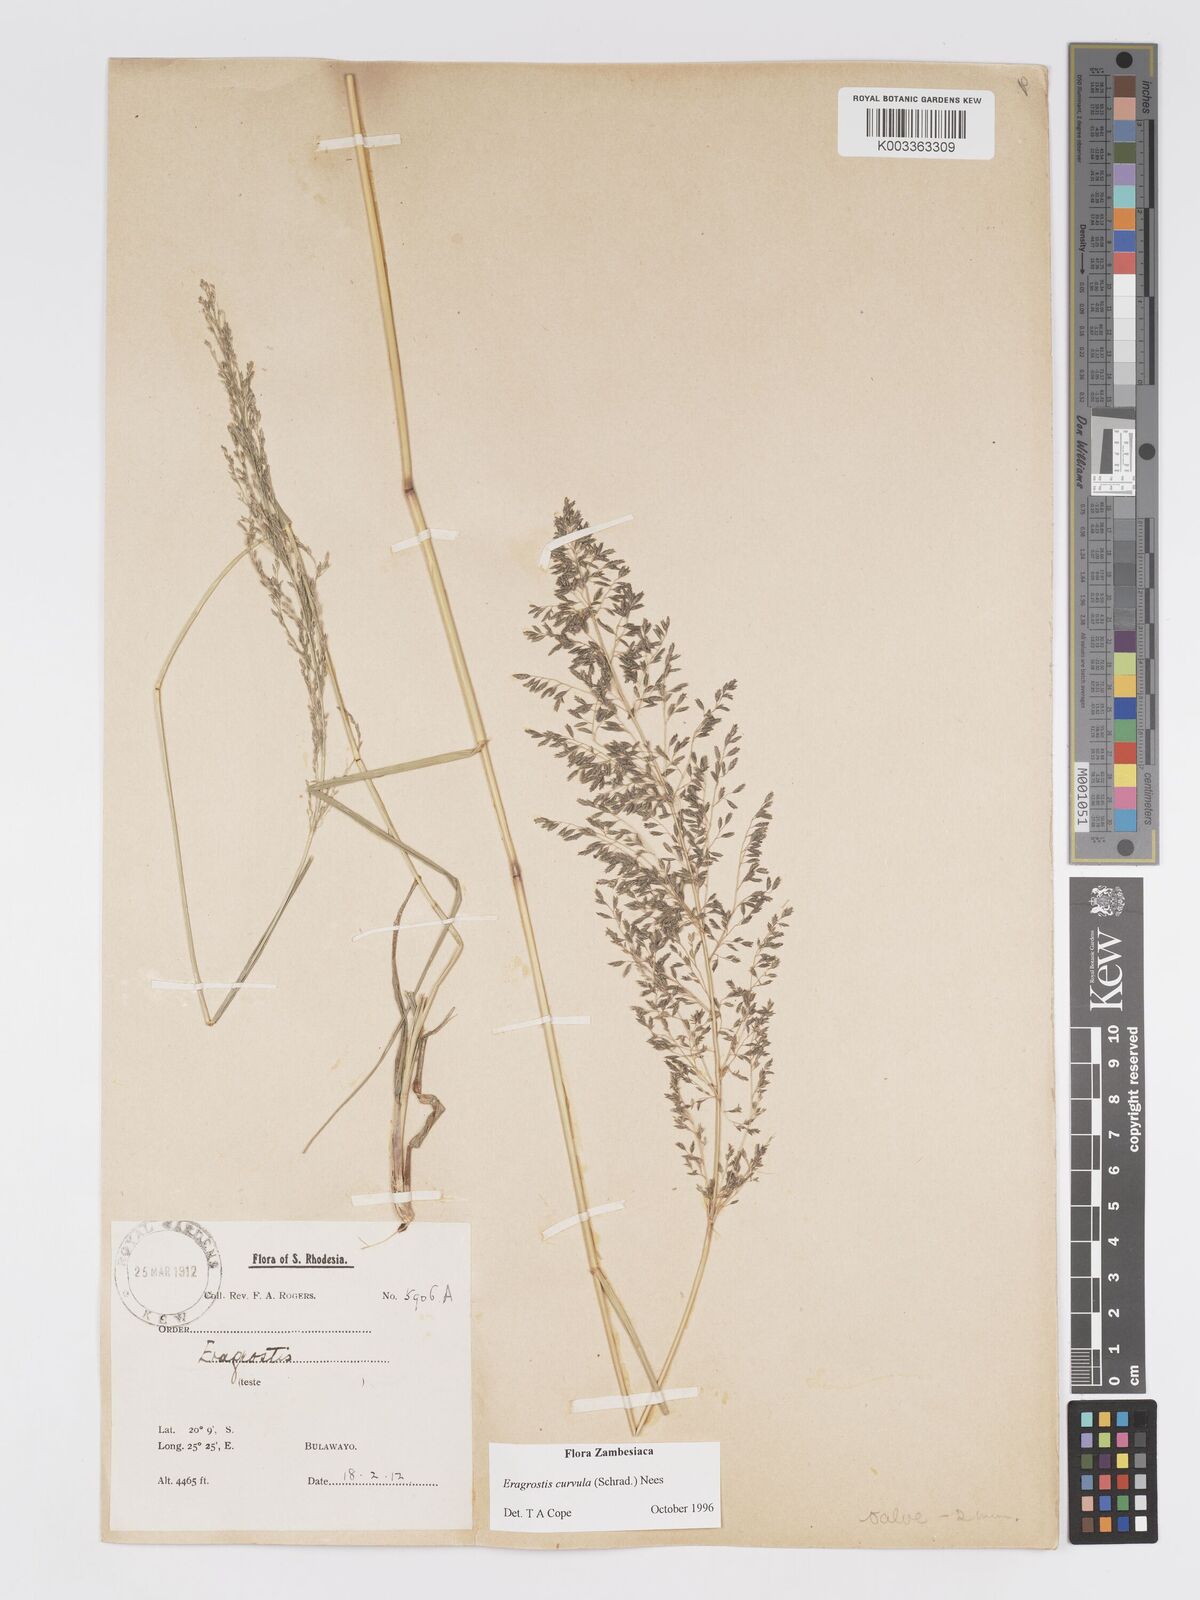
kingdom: Plantae
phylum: Tracheophyta
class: Liliopsida
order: Poales
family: Poaceae
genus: Eragrostis
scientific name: Eragrostis curvula
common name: African love-grass
